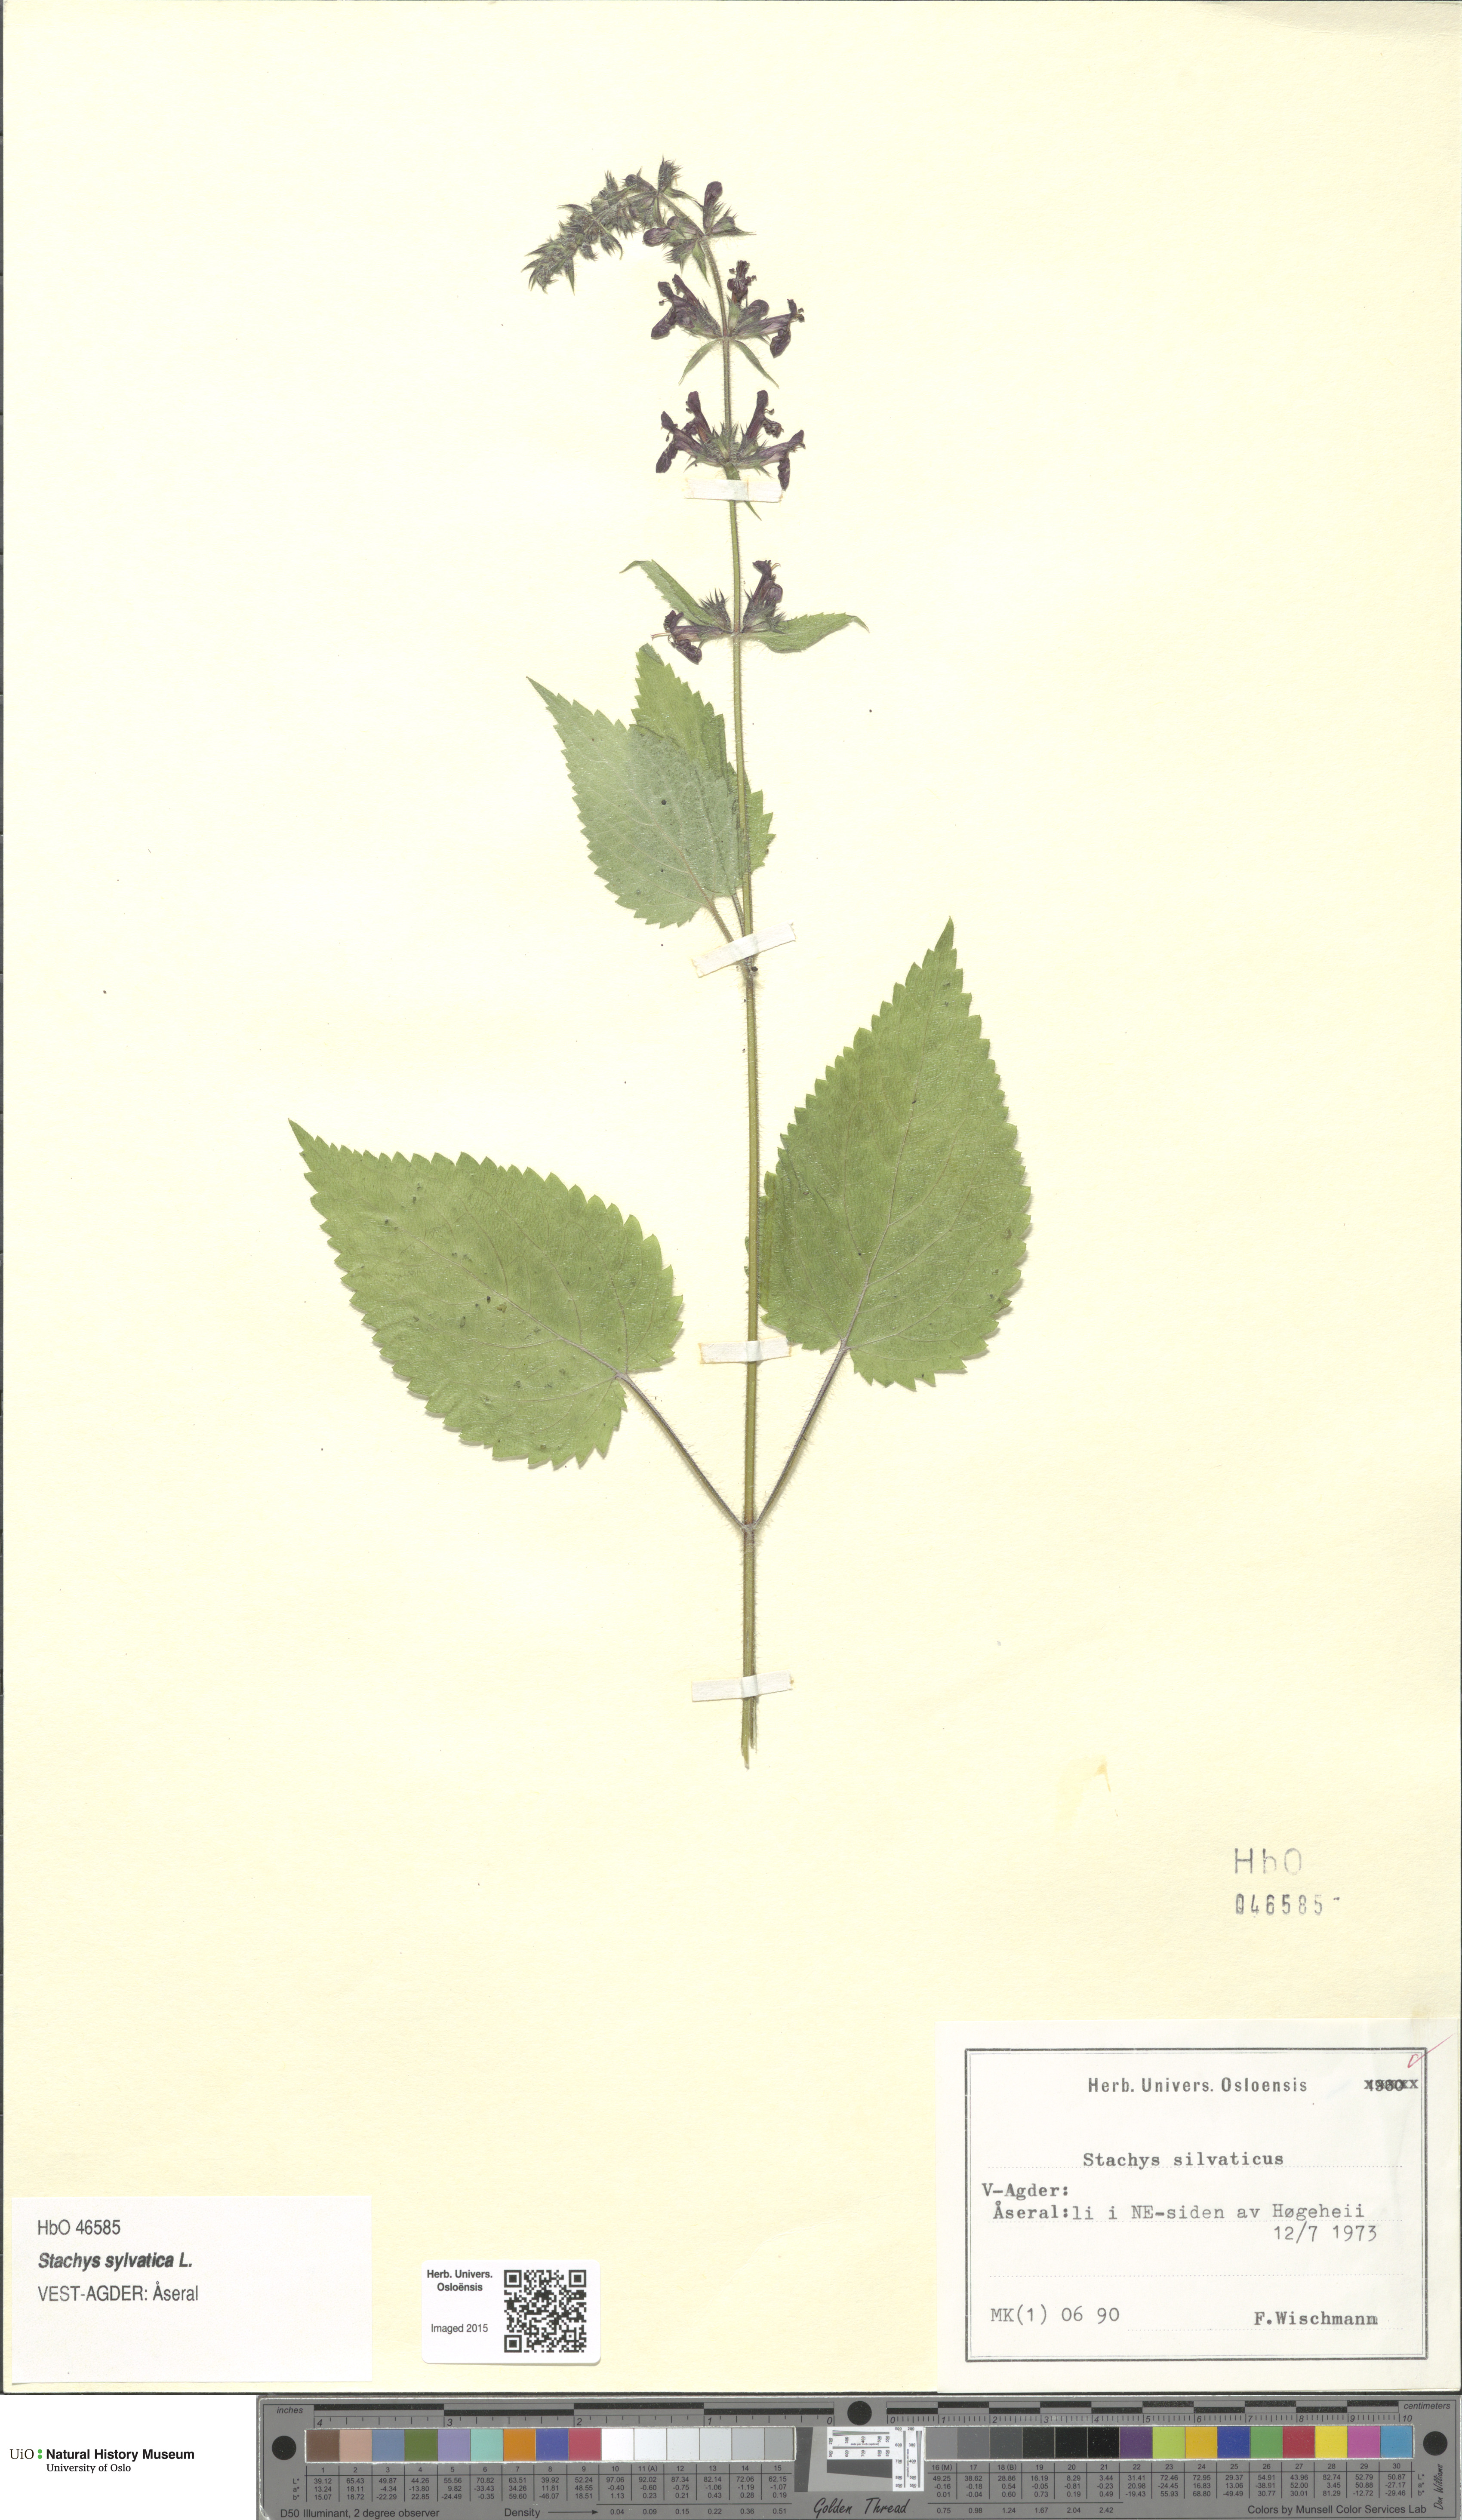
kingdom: Plantae
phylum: Tracheophyta
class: Magnoliopsida
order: Lamiales
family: Lamiaceae
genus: Stachys
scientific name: Stachys sylvatica
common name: Hedge woundwort
